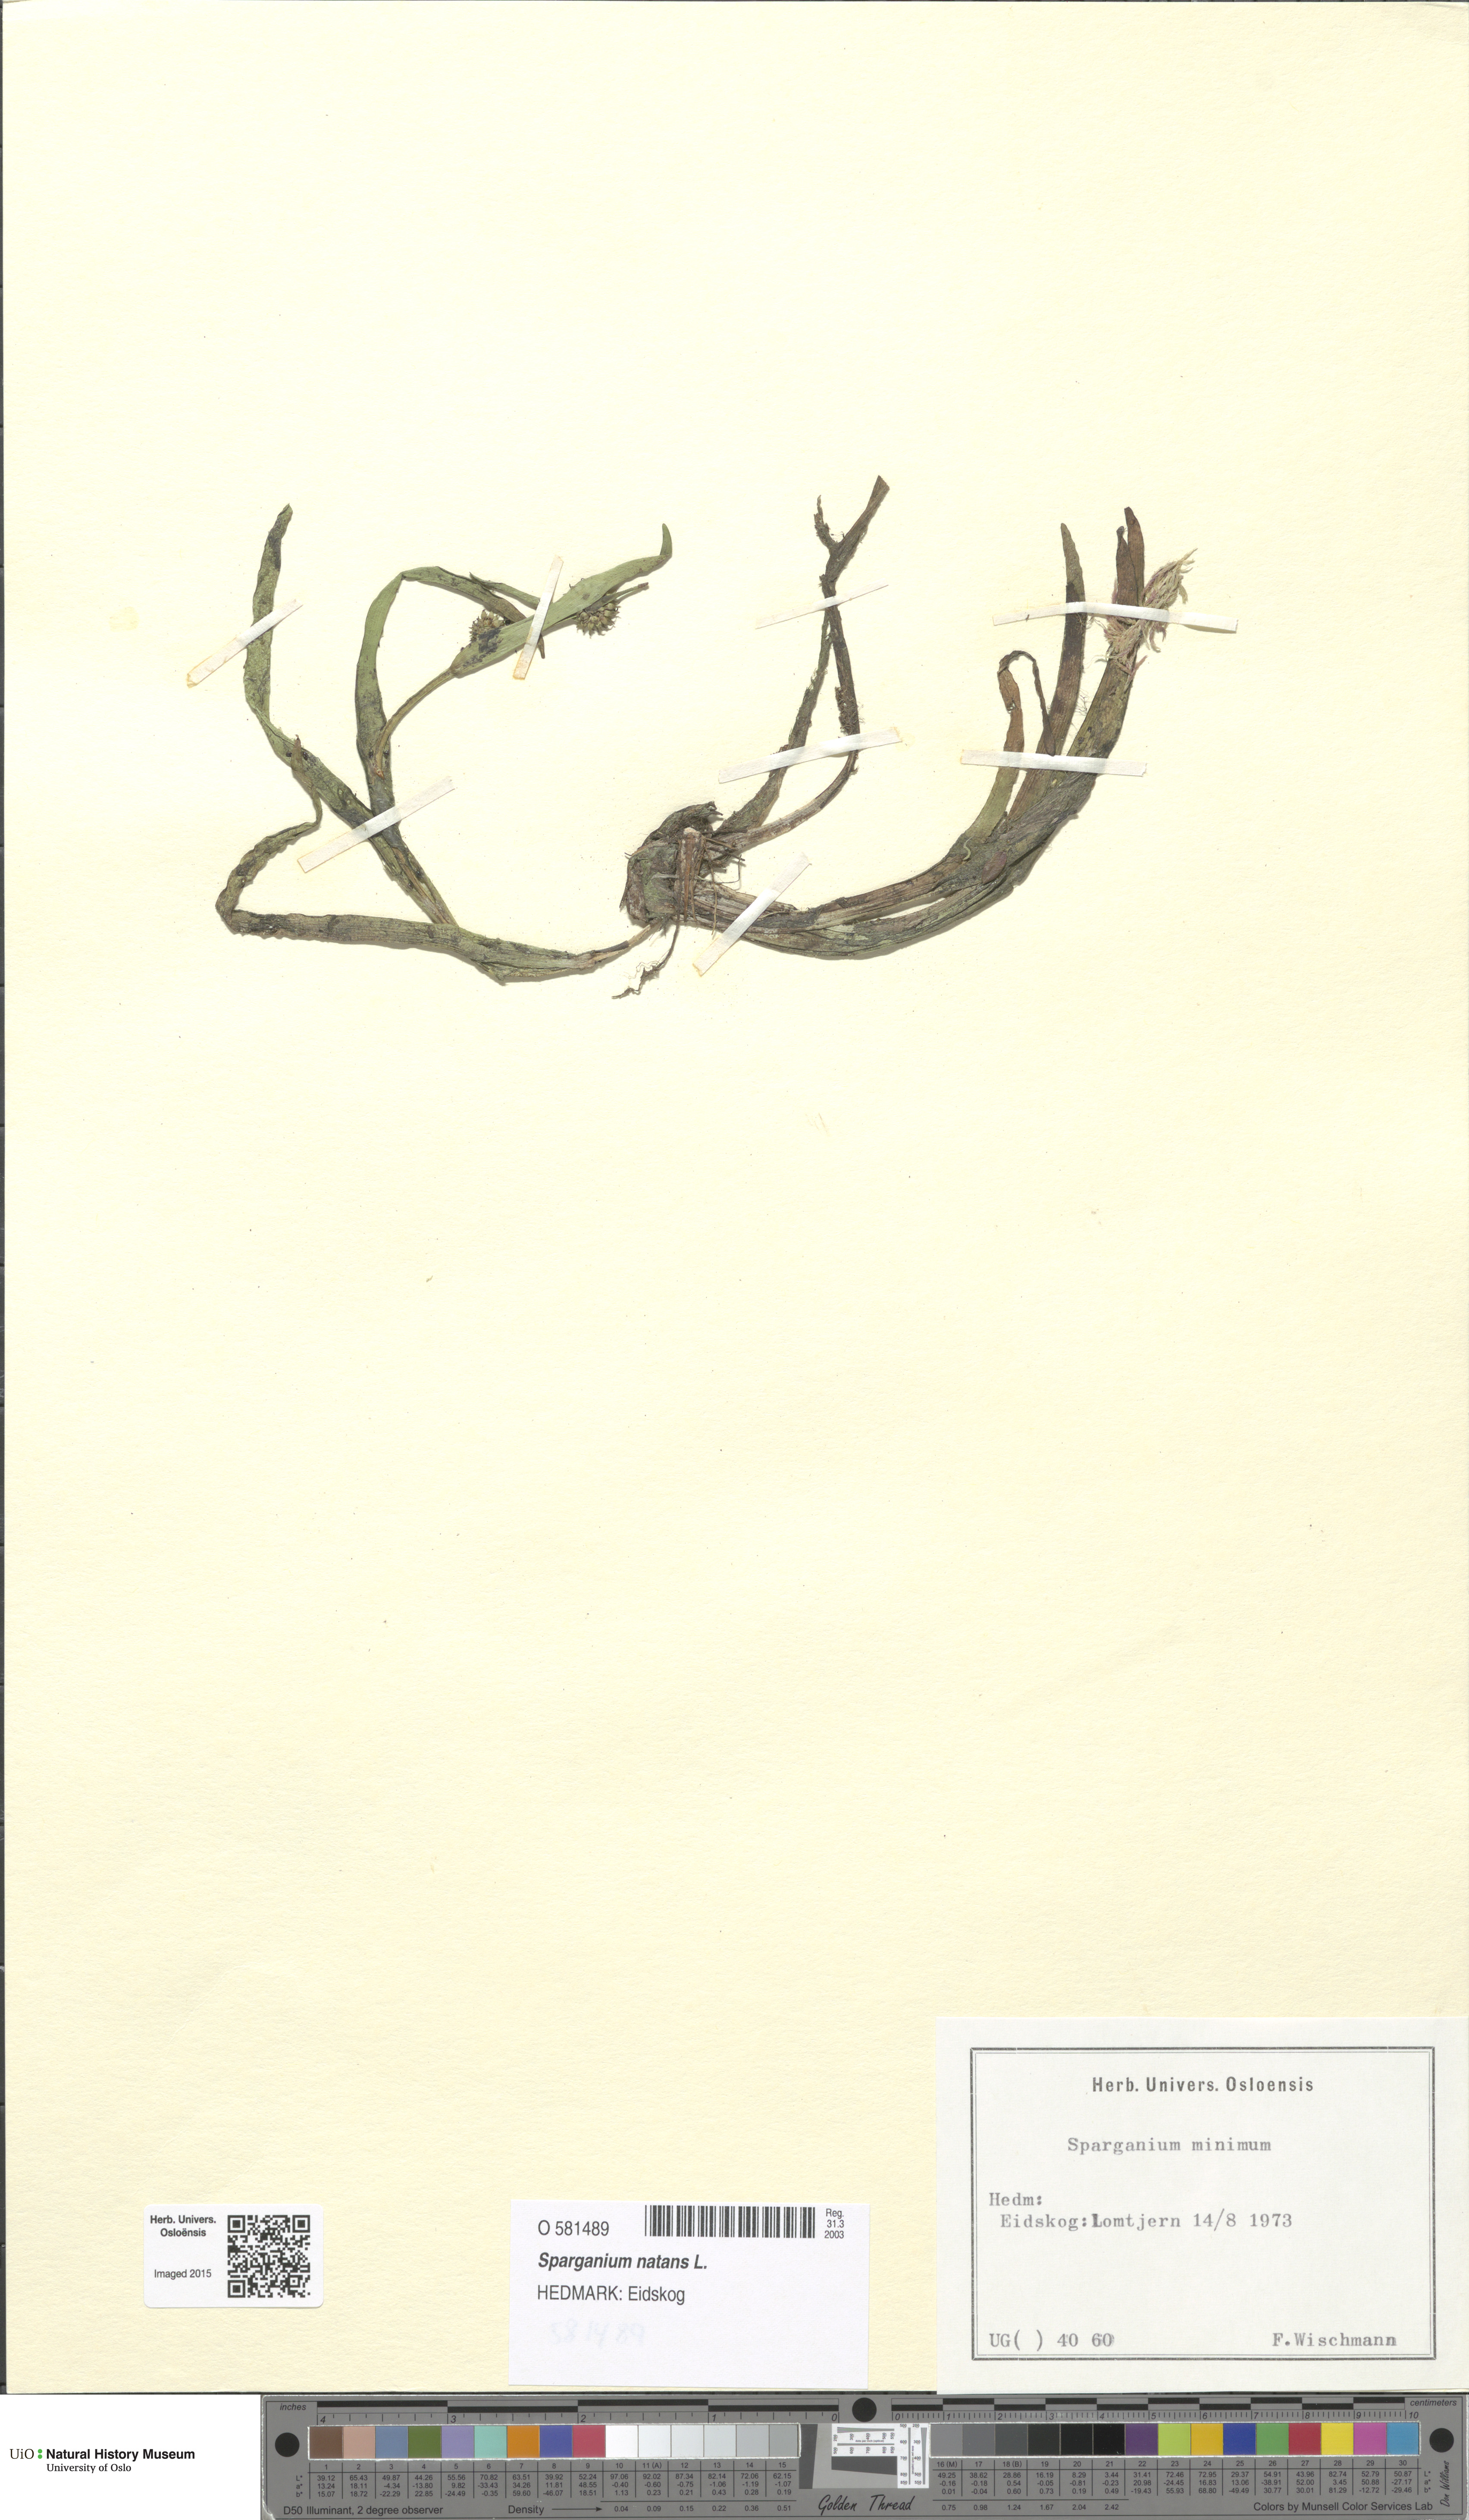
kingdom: Plantae
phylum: Tracheophyta
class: Liliopsida
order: Poales
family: Typhaceae
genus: Sparganium
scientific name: Sparganium natans
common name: Least bur-reed
